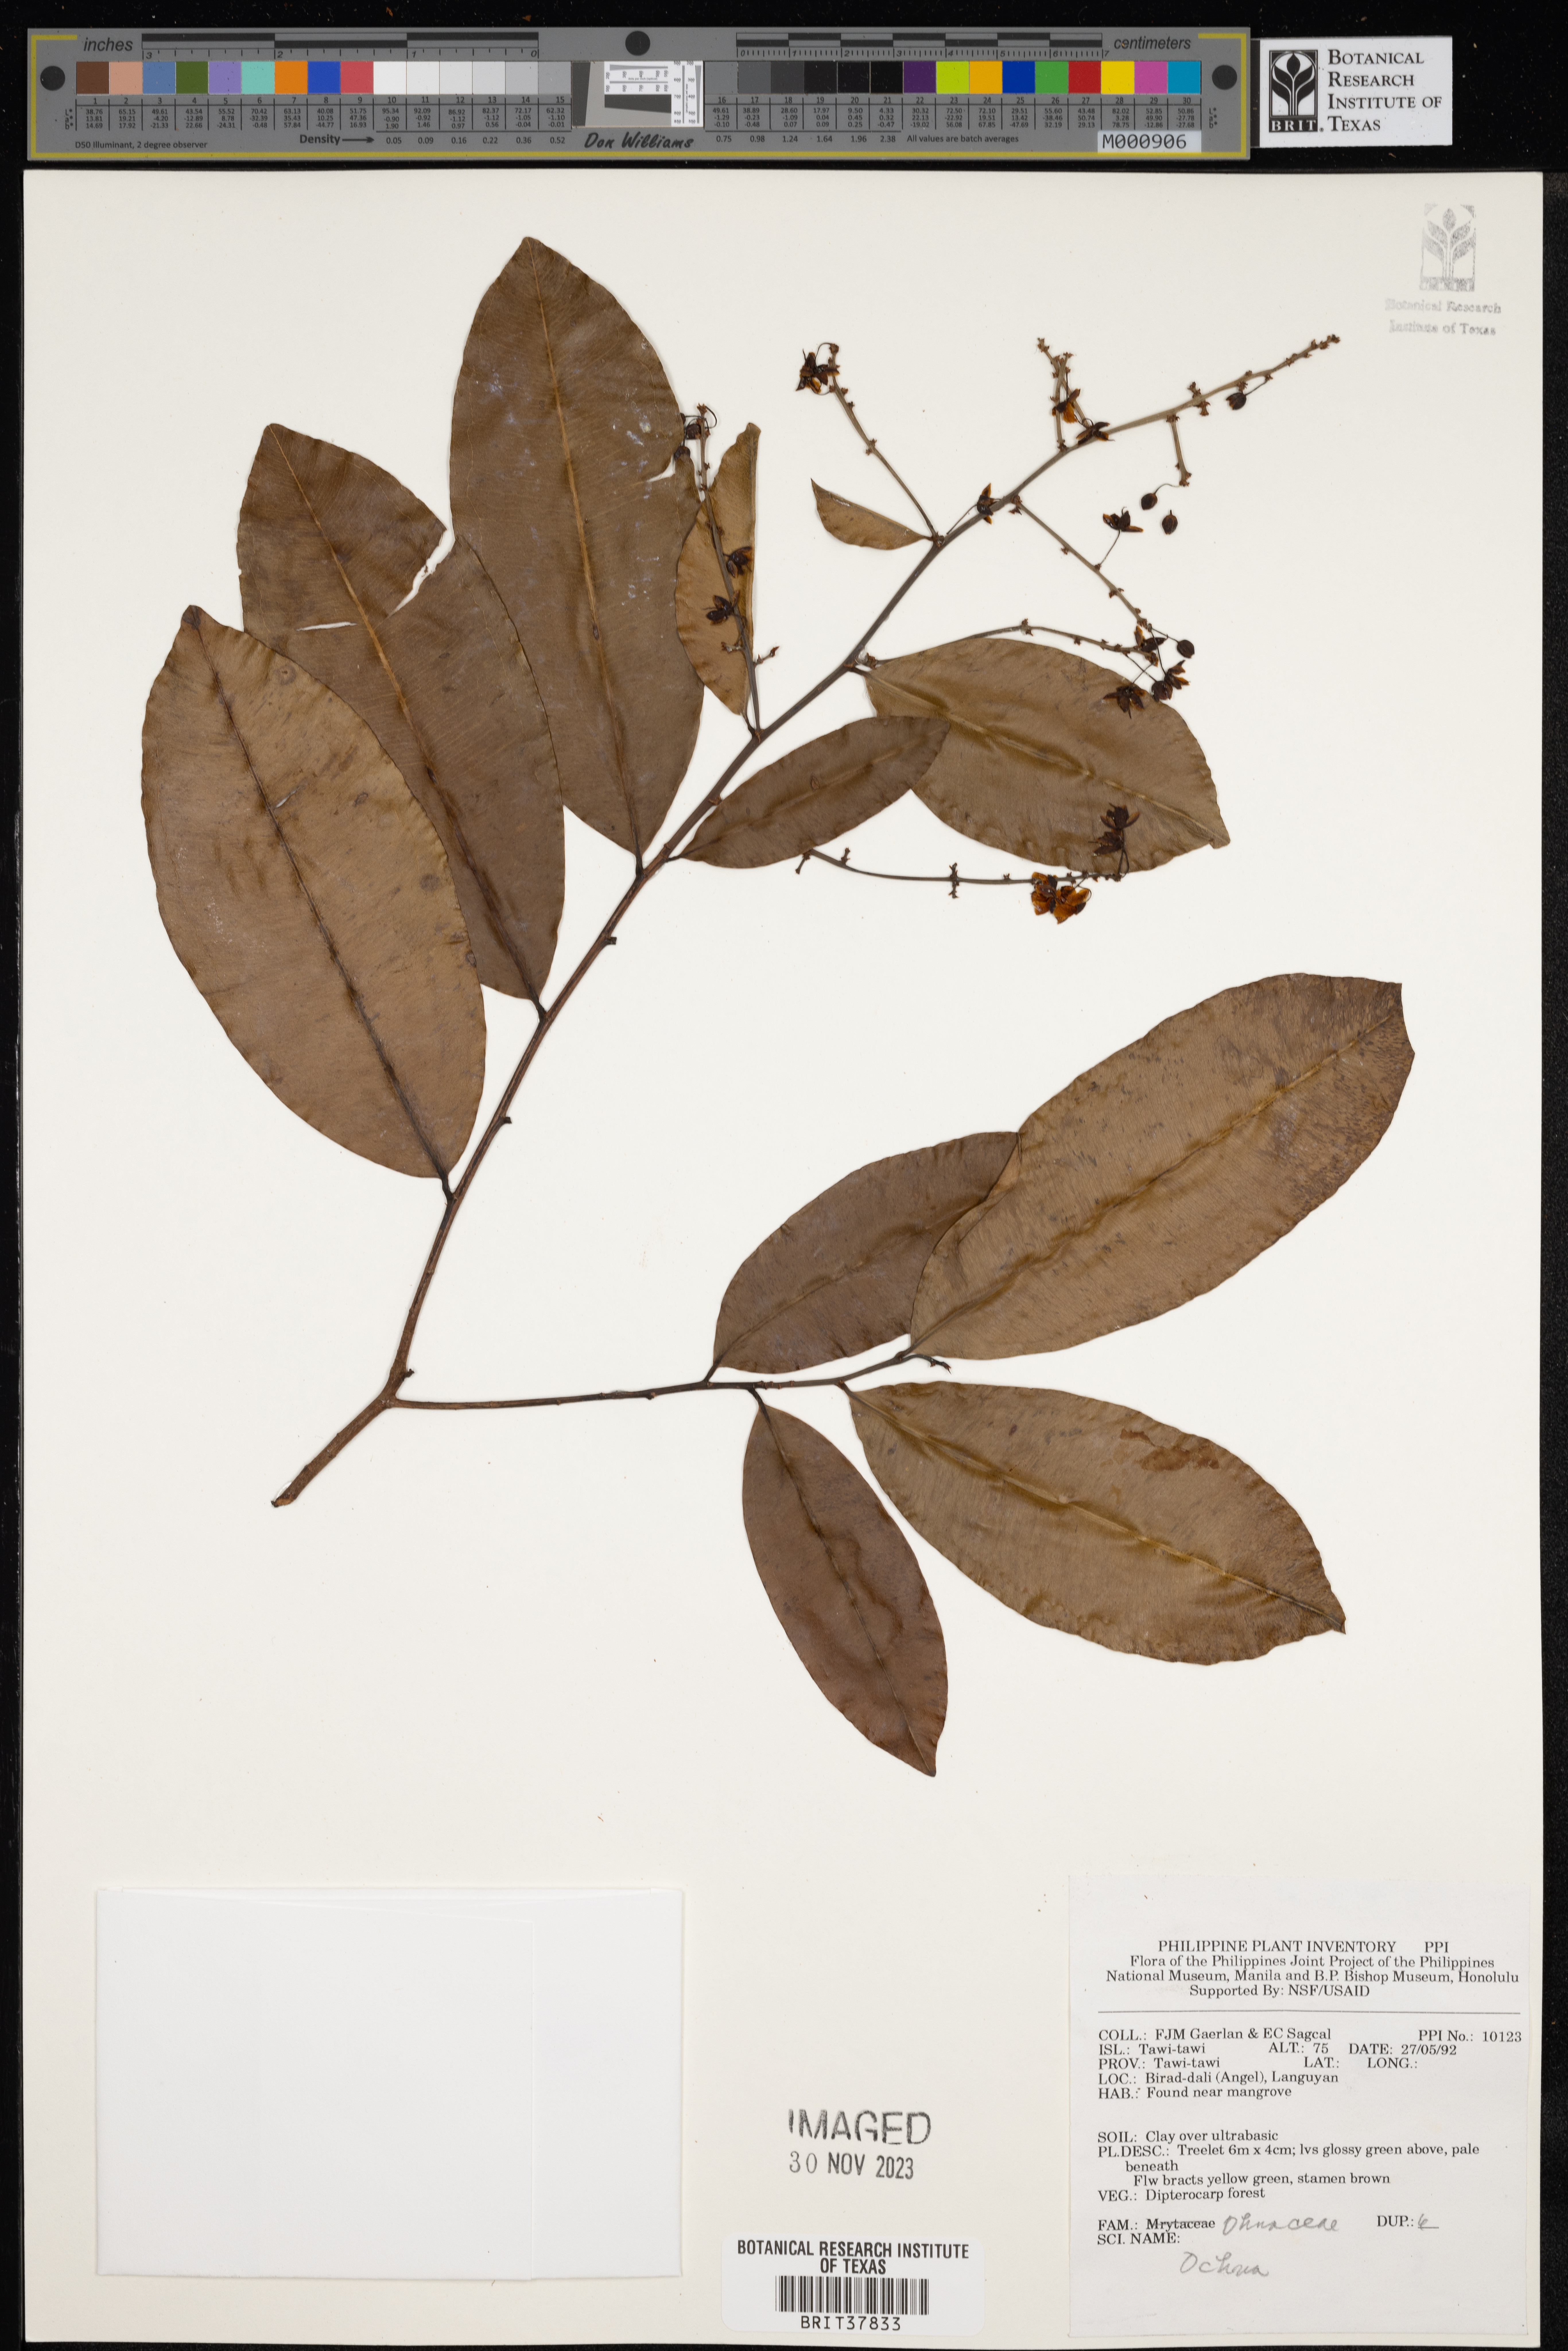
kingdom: Plantae
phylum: Tracheophyta
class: Magnoliopsida
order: Malpighiales
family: Ochnaceae
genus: Ochna
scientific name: Ochna
